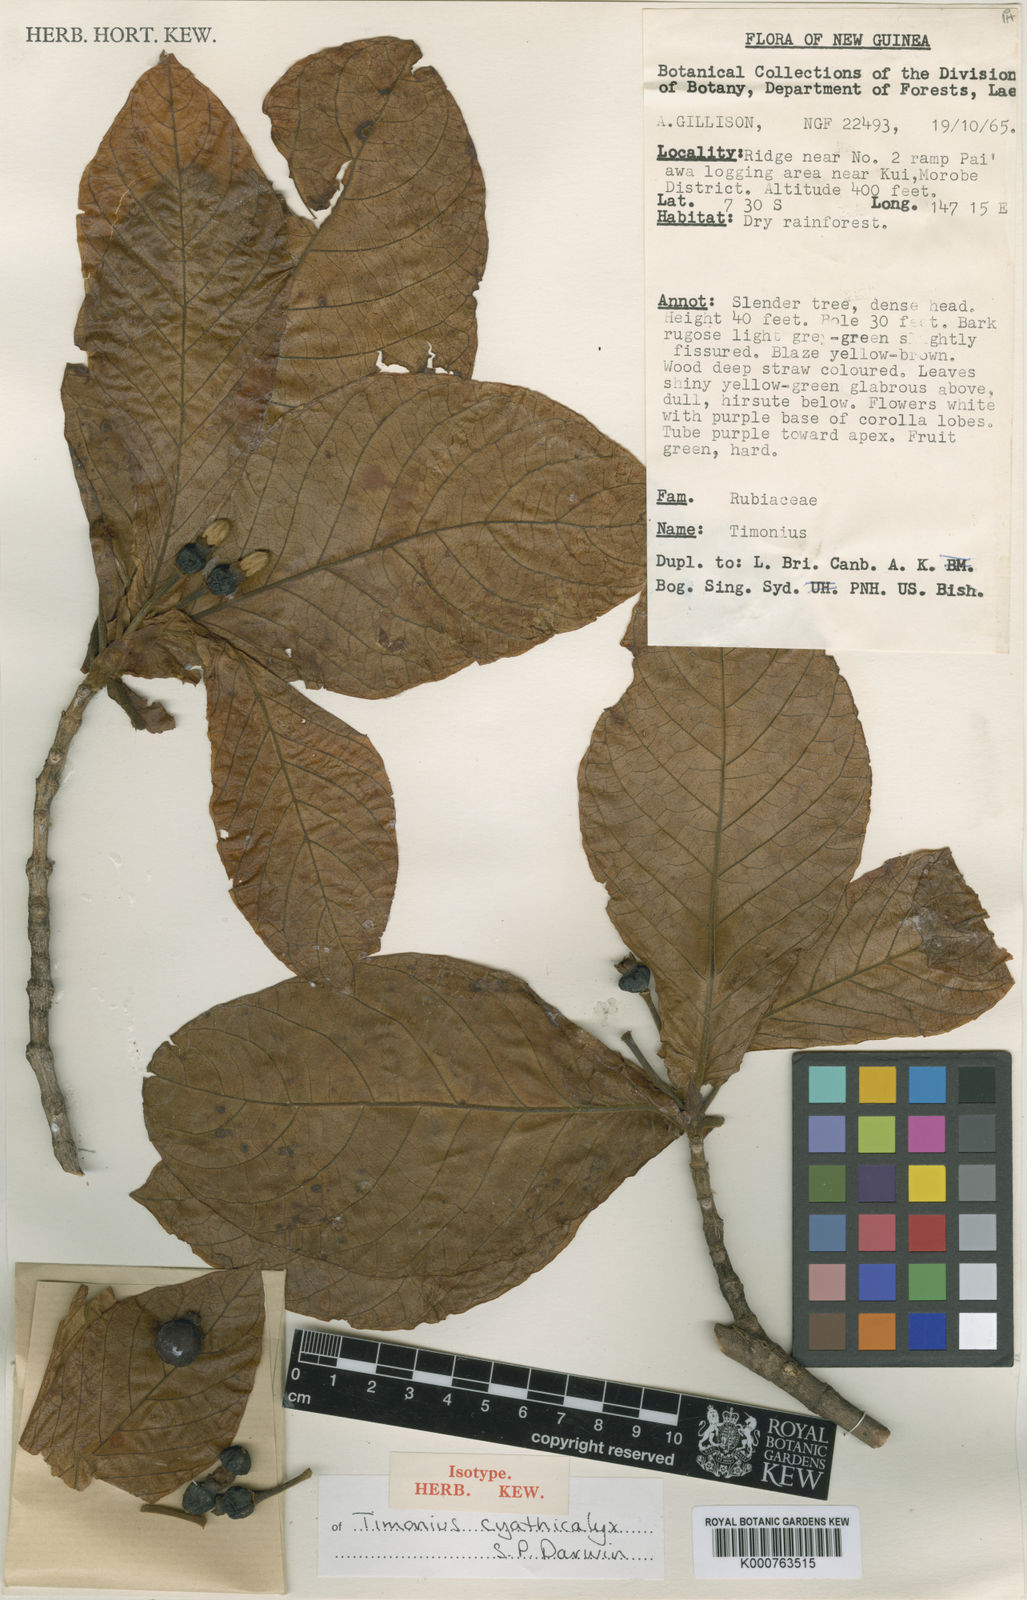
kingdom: Plantae
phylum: Tracheophyta
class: Magnoliopsida
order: Gentianales
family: Rubiaceae
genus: Timonius
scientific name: Timonius cyathicalyx
